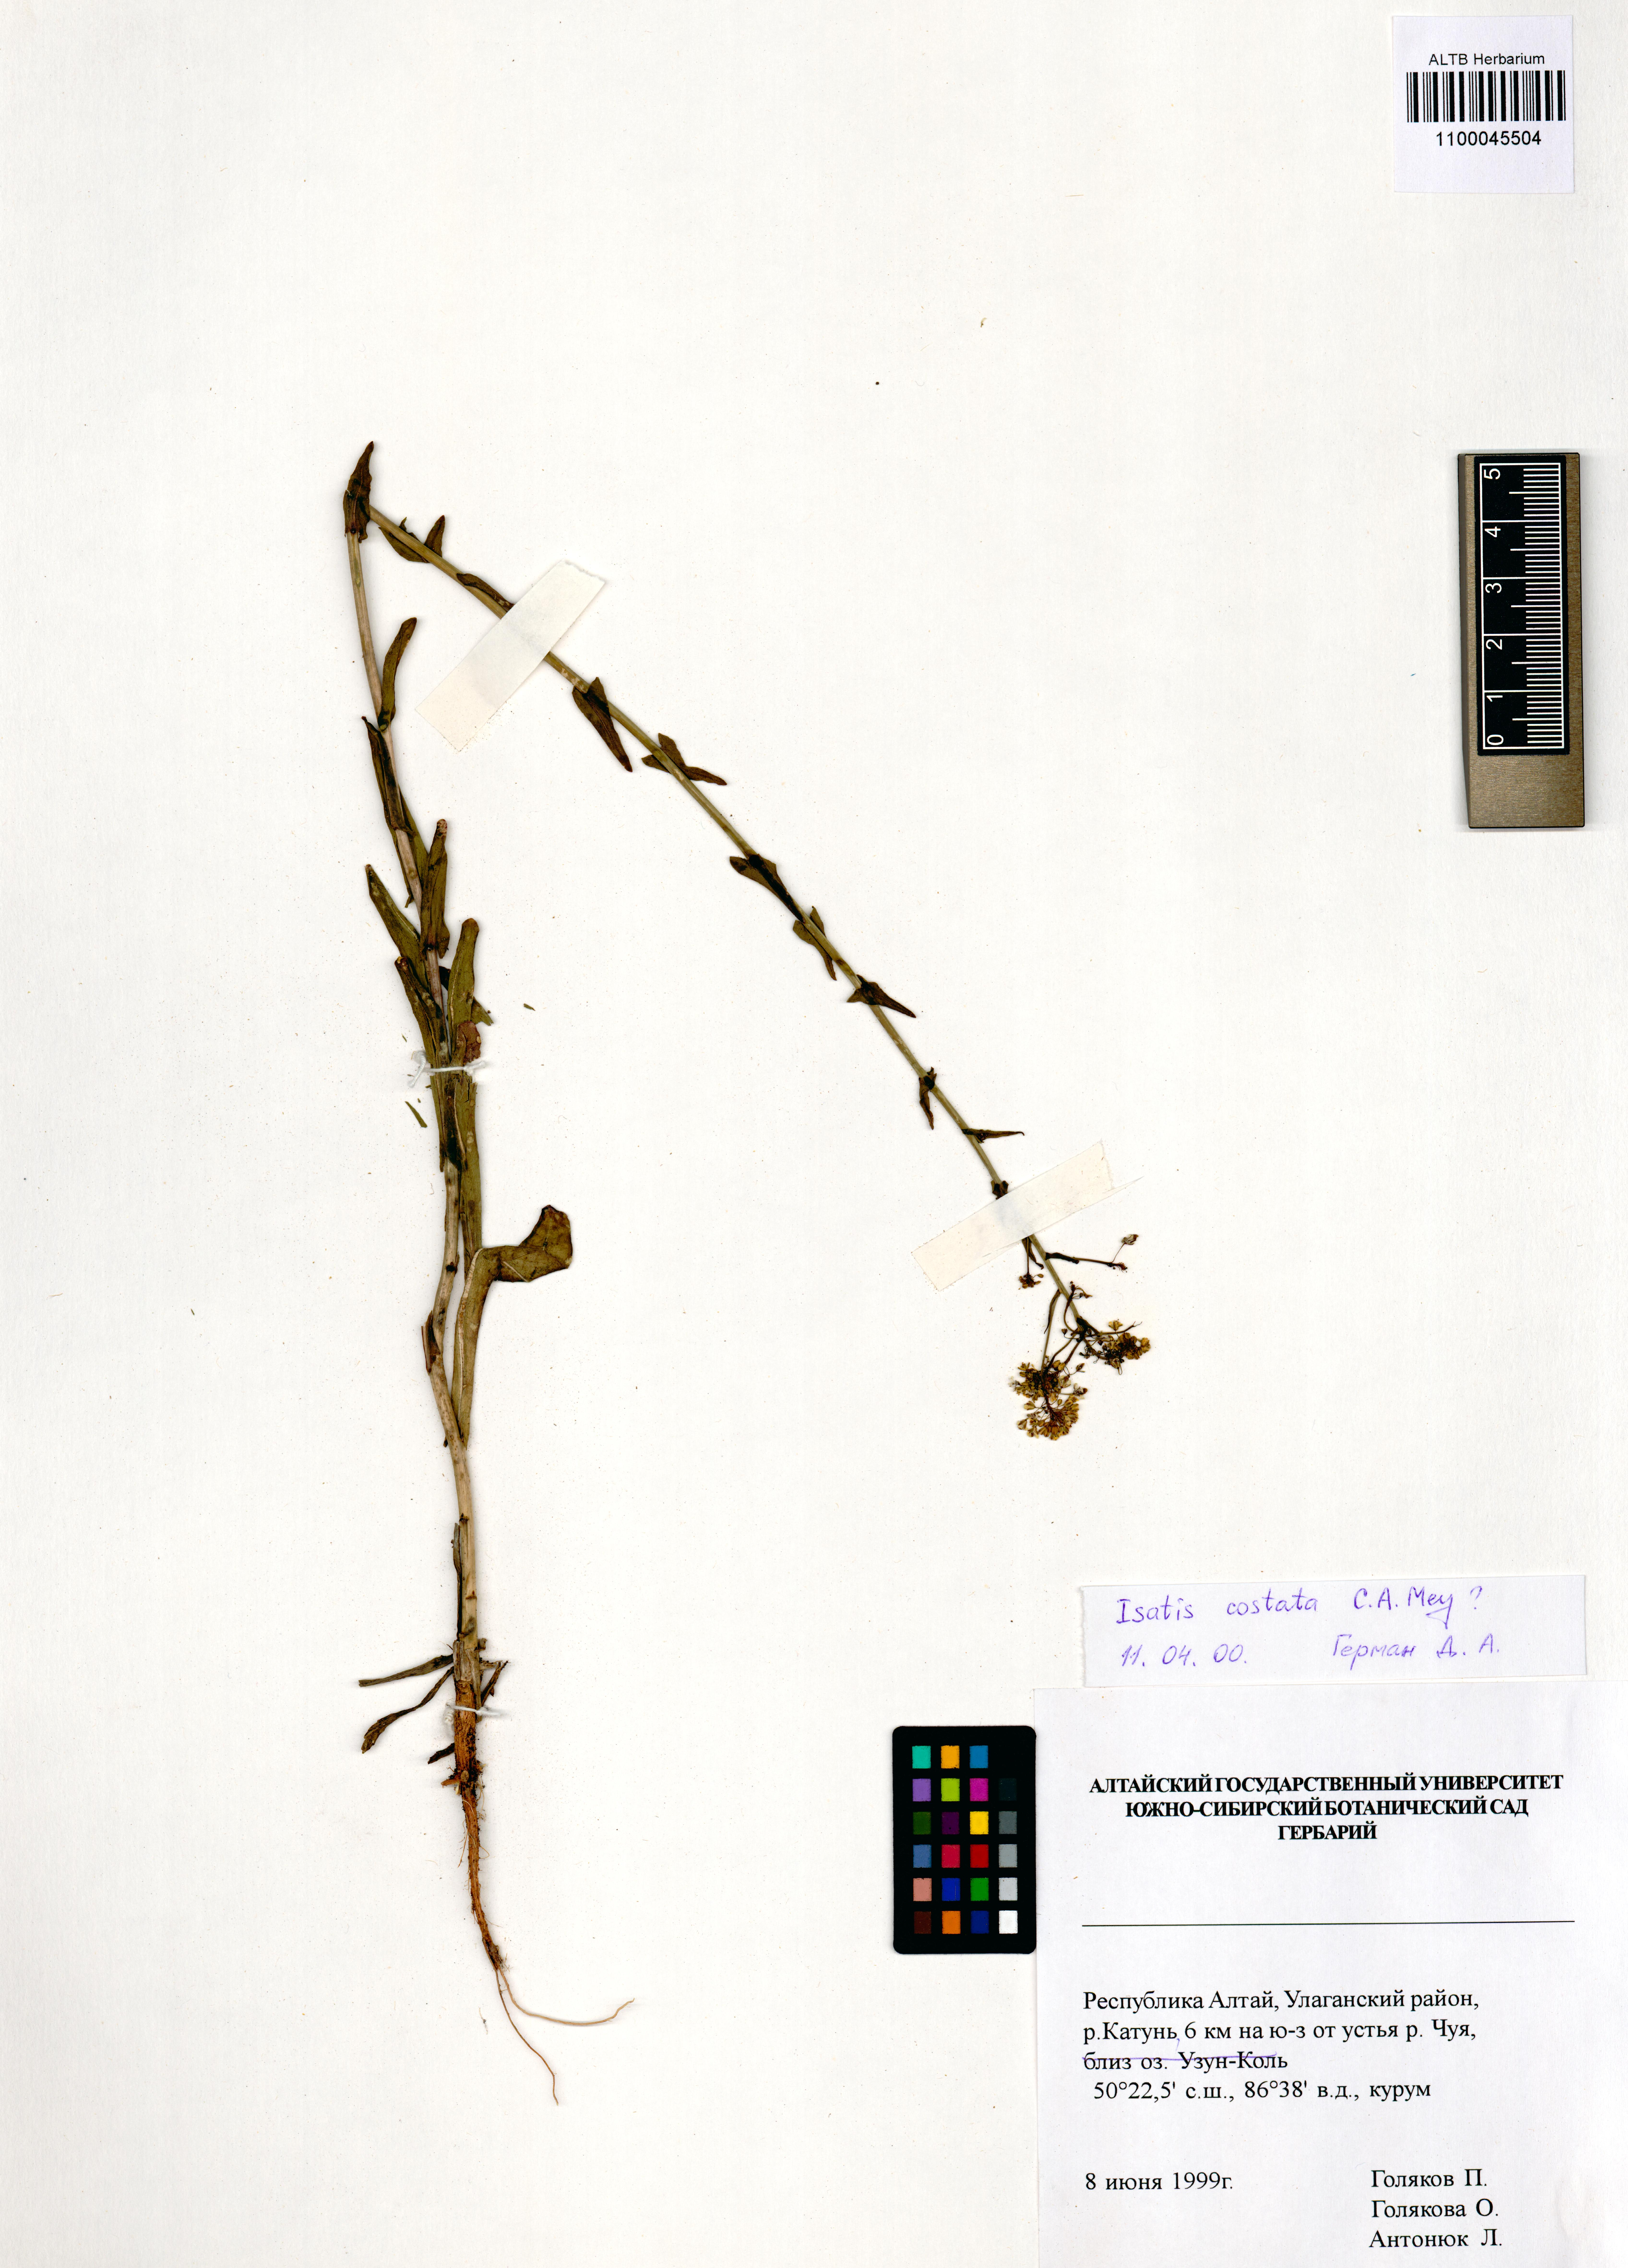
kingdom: Plantae
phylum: Tracheophyta
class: Magnoliopsida
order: Brassicales
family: Brassicaceae
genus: Isatis
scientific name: Isatis costata
